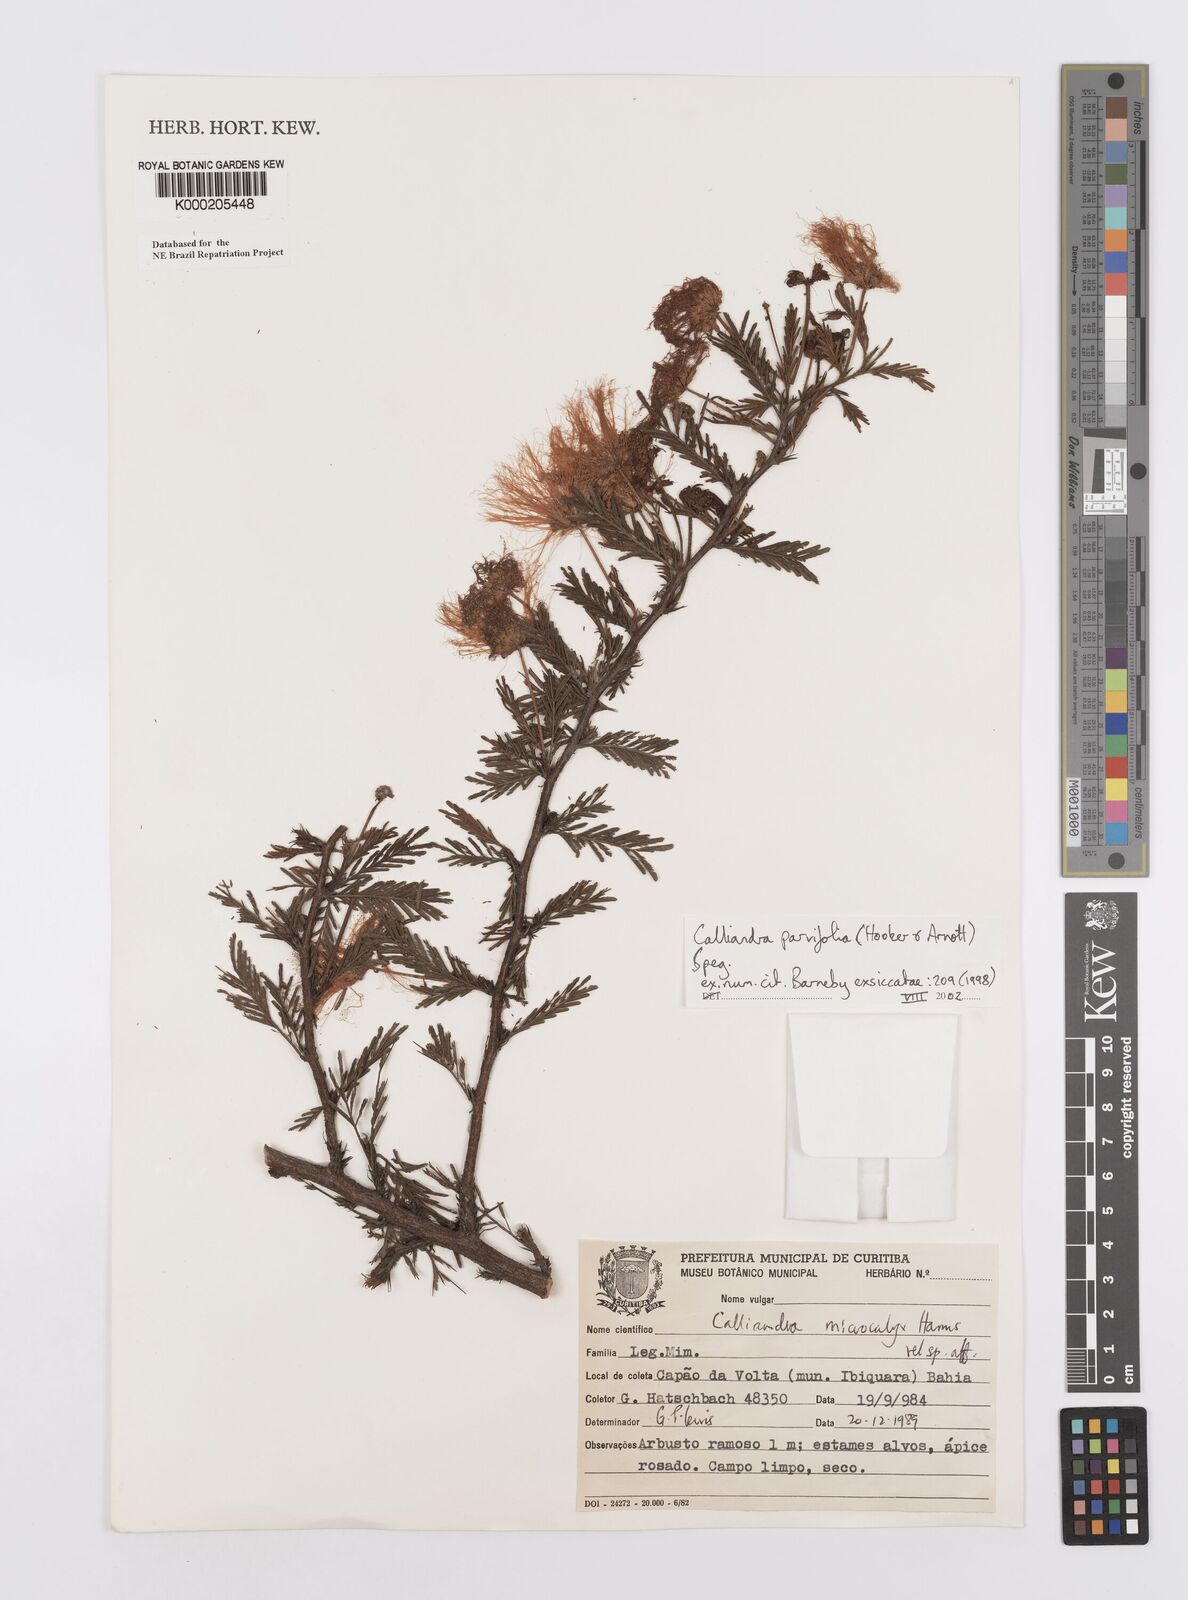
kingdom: Plantae
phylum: Tracheophyta
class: Magnoliopsida
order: Fabales
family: Fabaceae
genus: Calliandra
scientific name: Calliandra parvifolia
